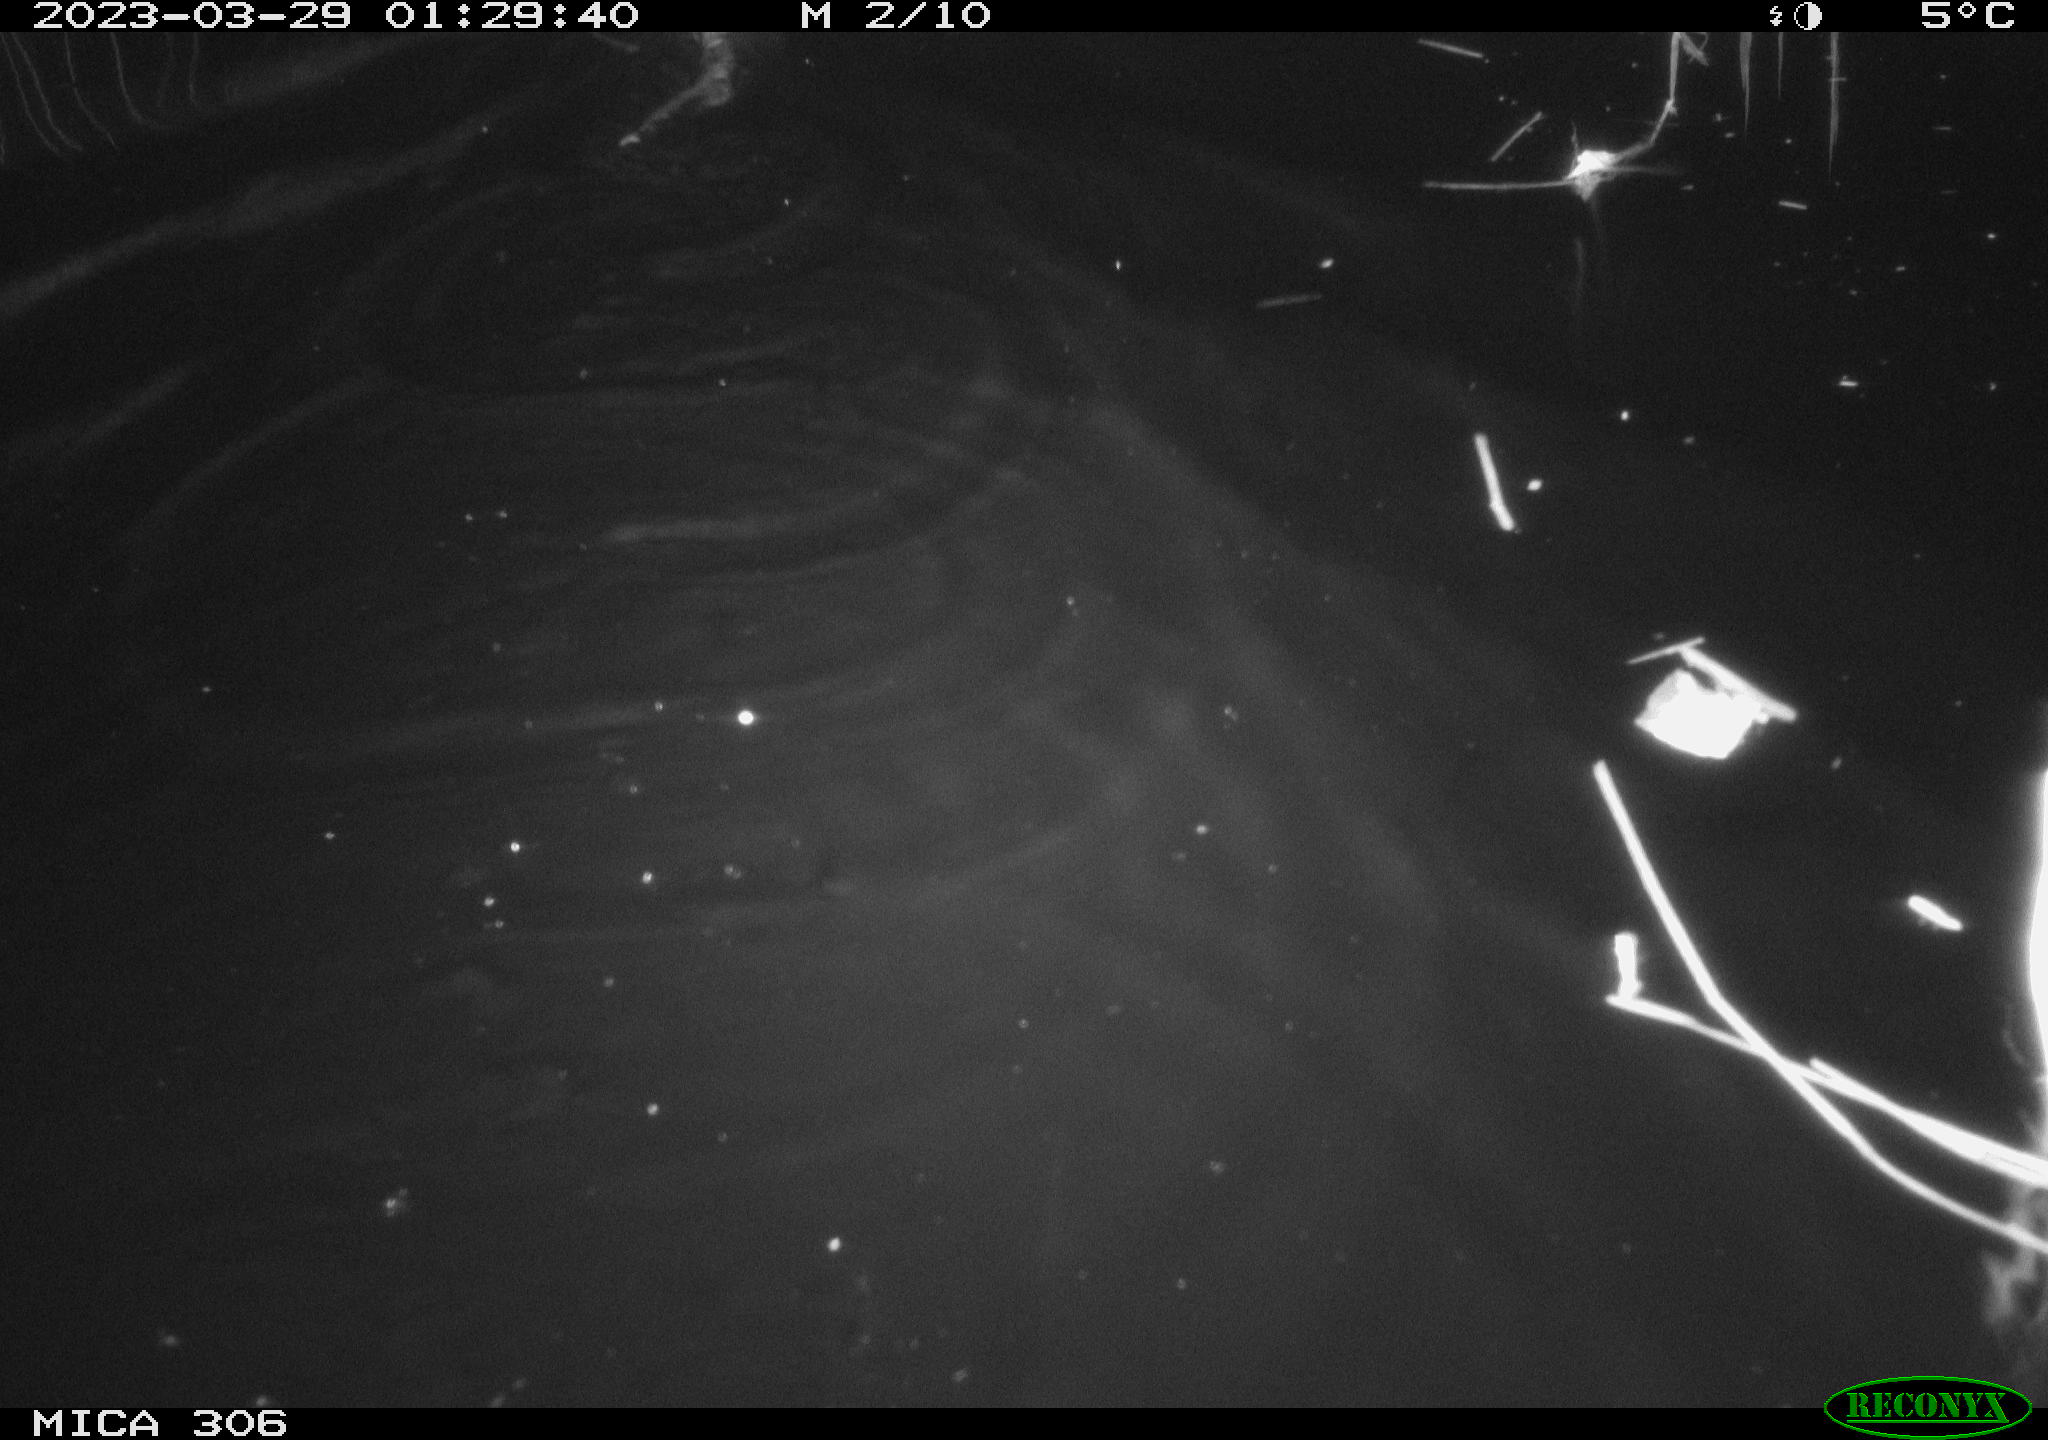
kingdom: Animalia
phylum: Chordata
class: Mammalia
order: Rodentia
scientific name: Rodentia
